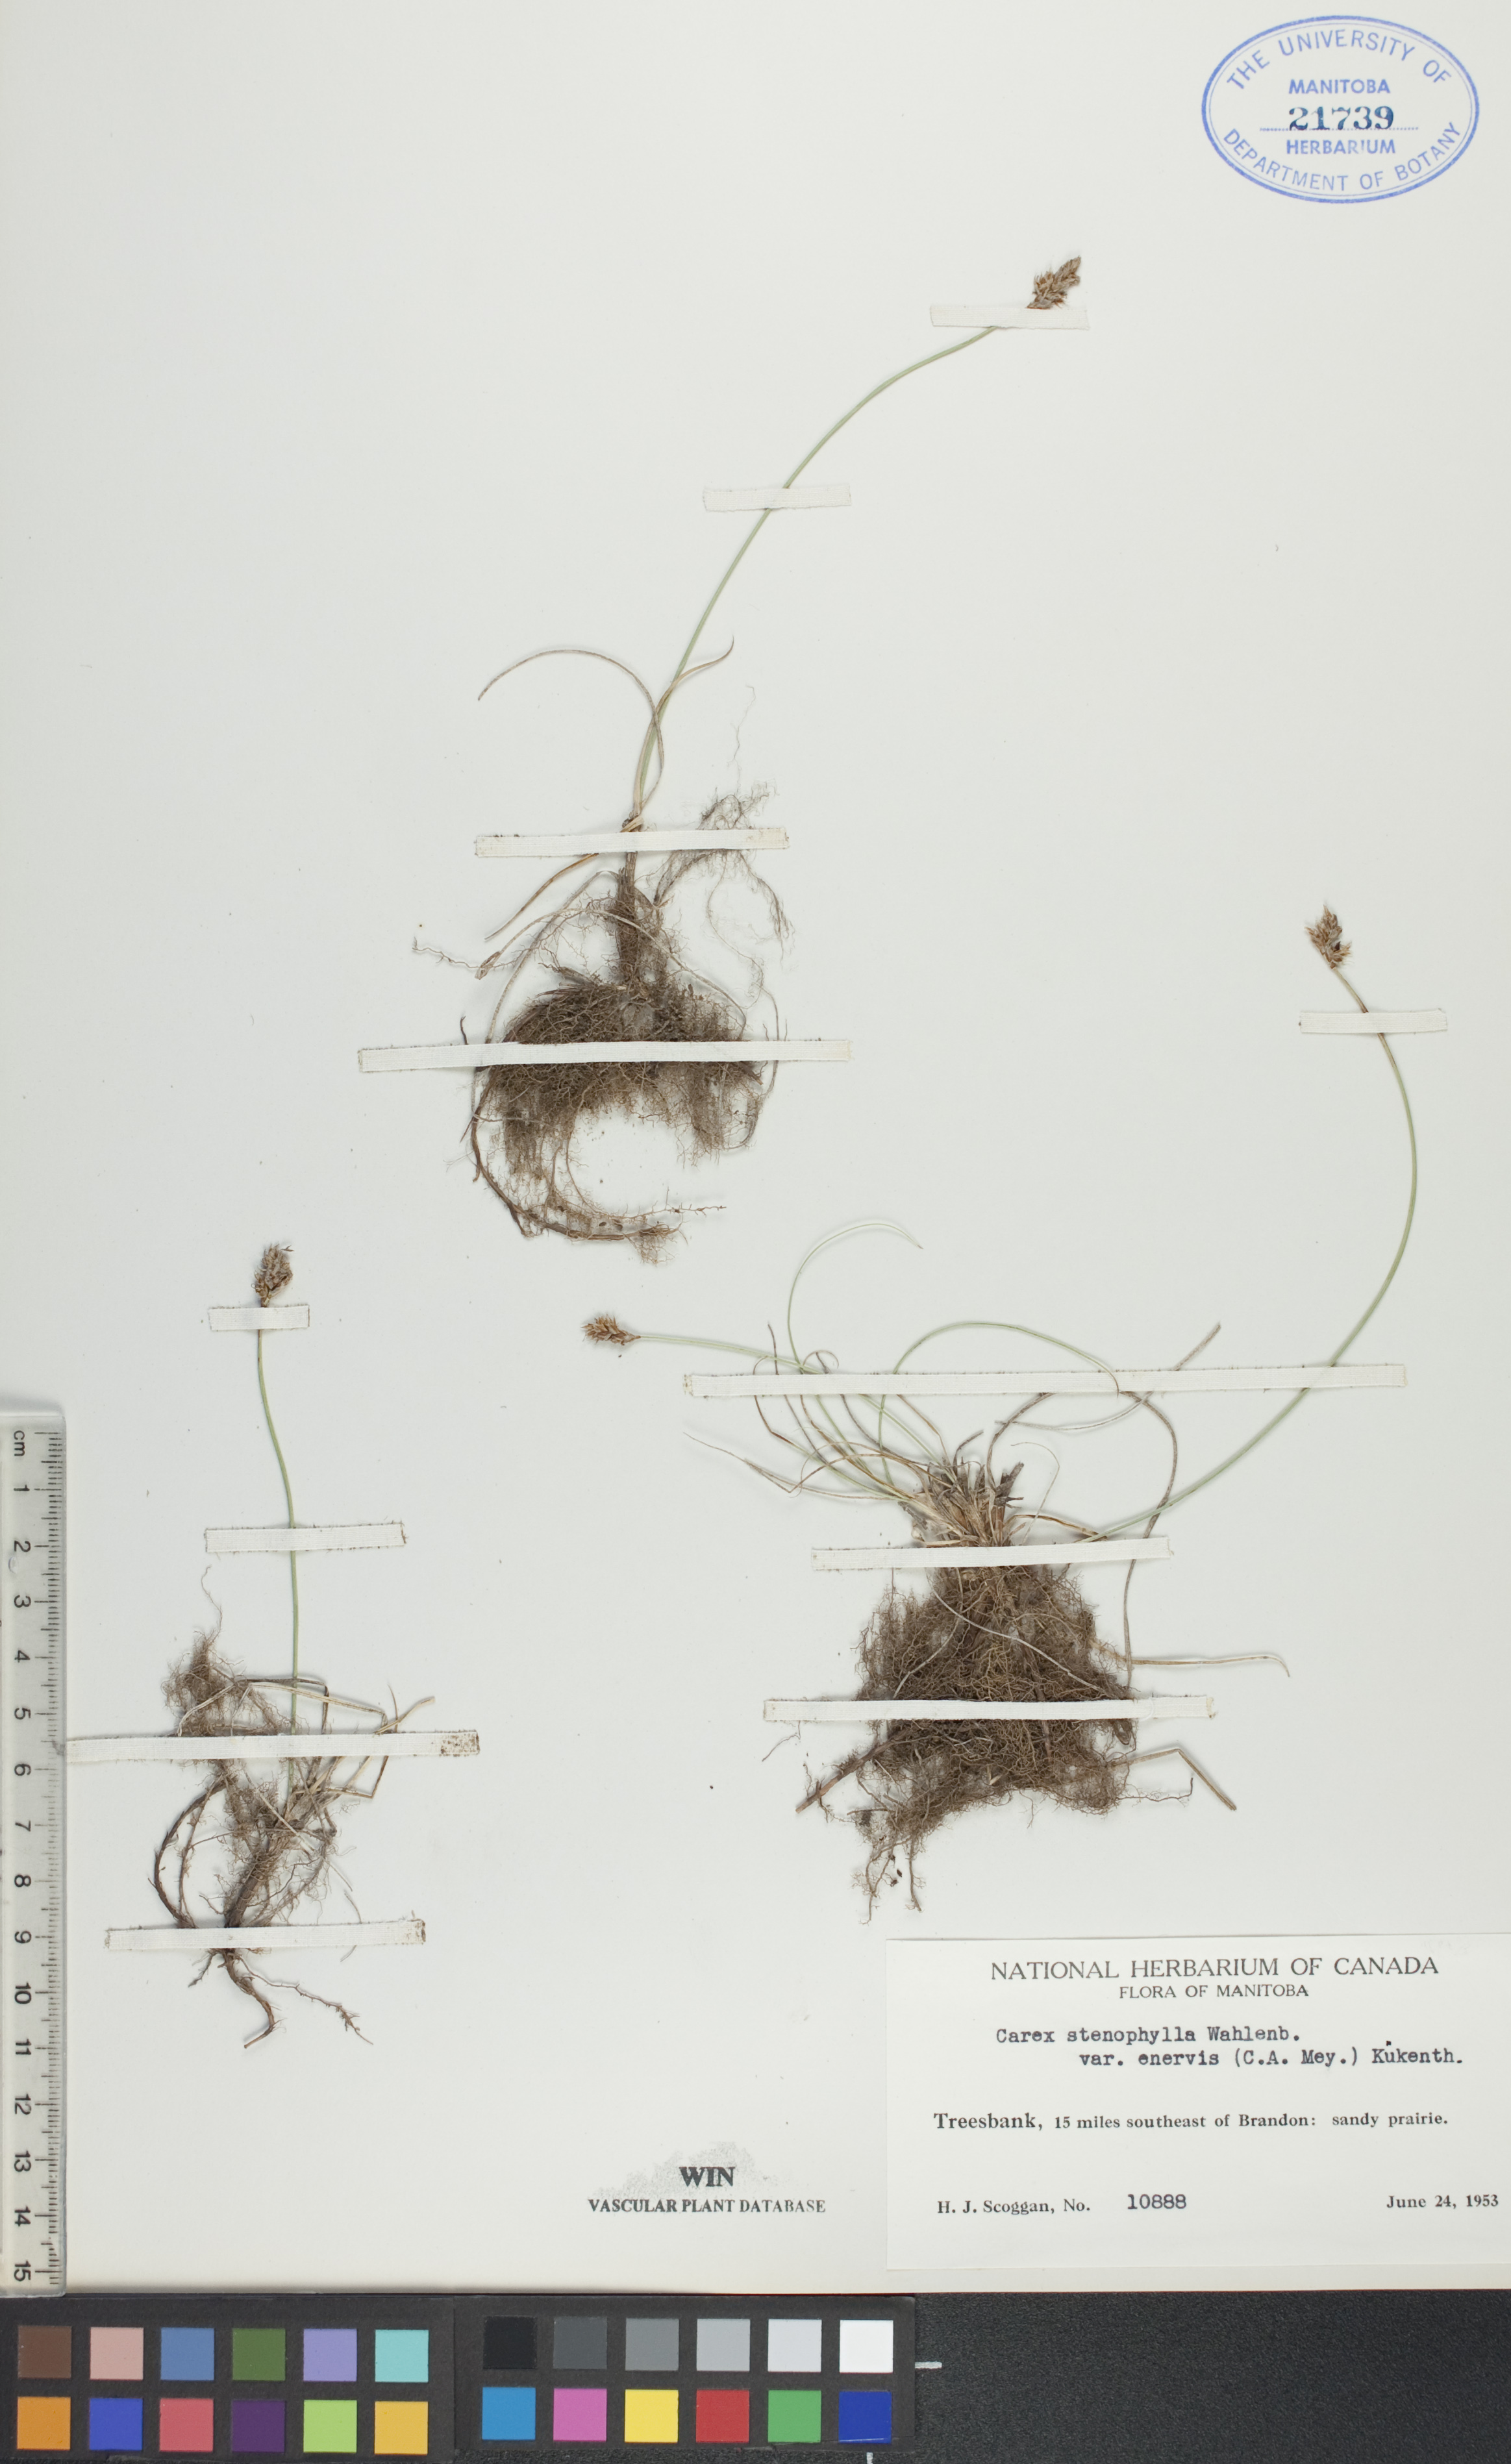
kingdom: Plantae
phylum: Tracheophyta
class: Liliopsida
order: Poales
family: Cyperaceae
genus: Carex
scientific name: Carex enervis
